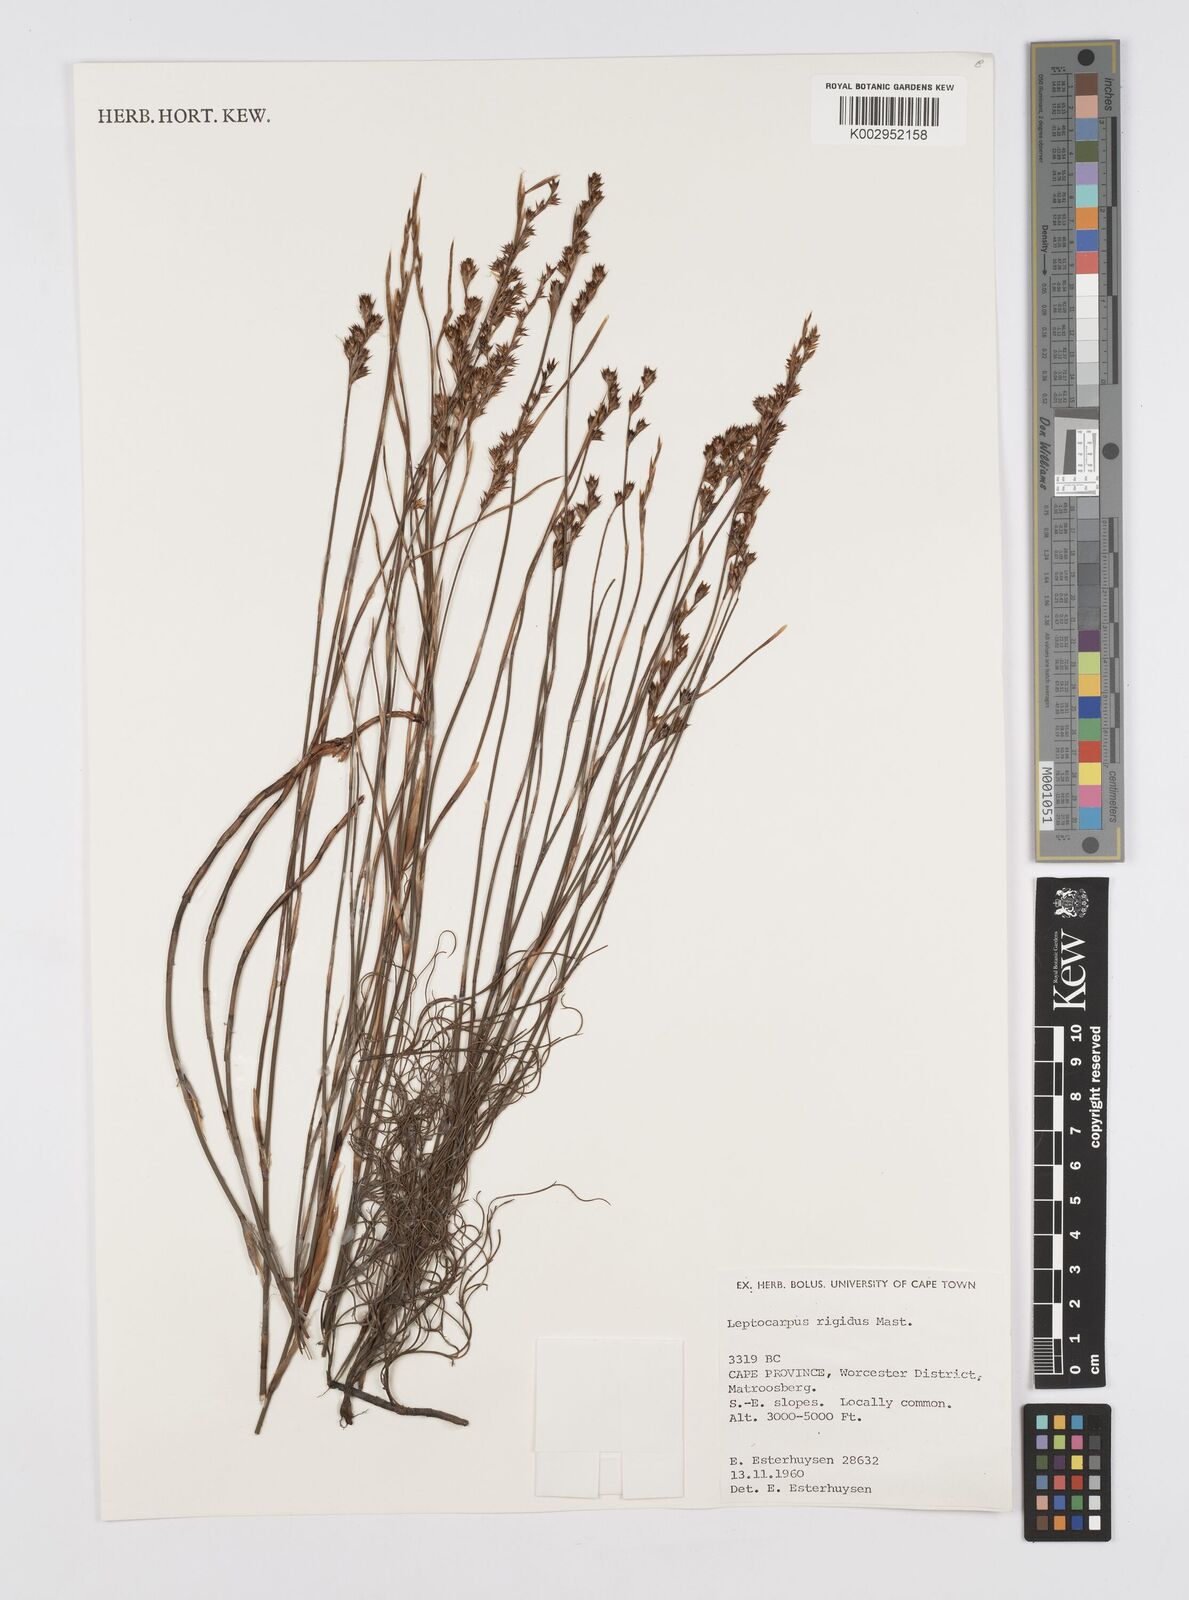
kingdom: Plantae
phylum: Tracheophyta
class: Liliopsida
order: Poales
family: Restionaceae
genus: Restio
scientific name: Restio rigidus
